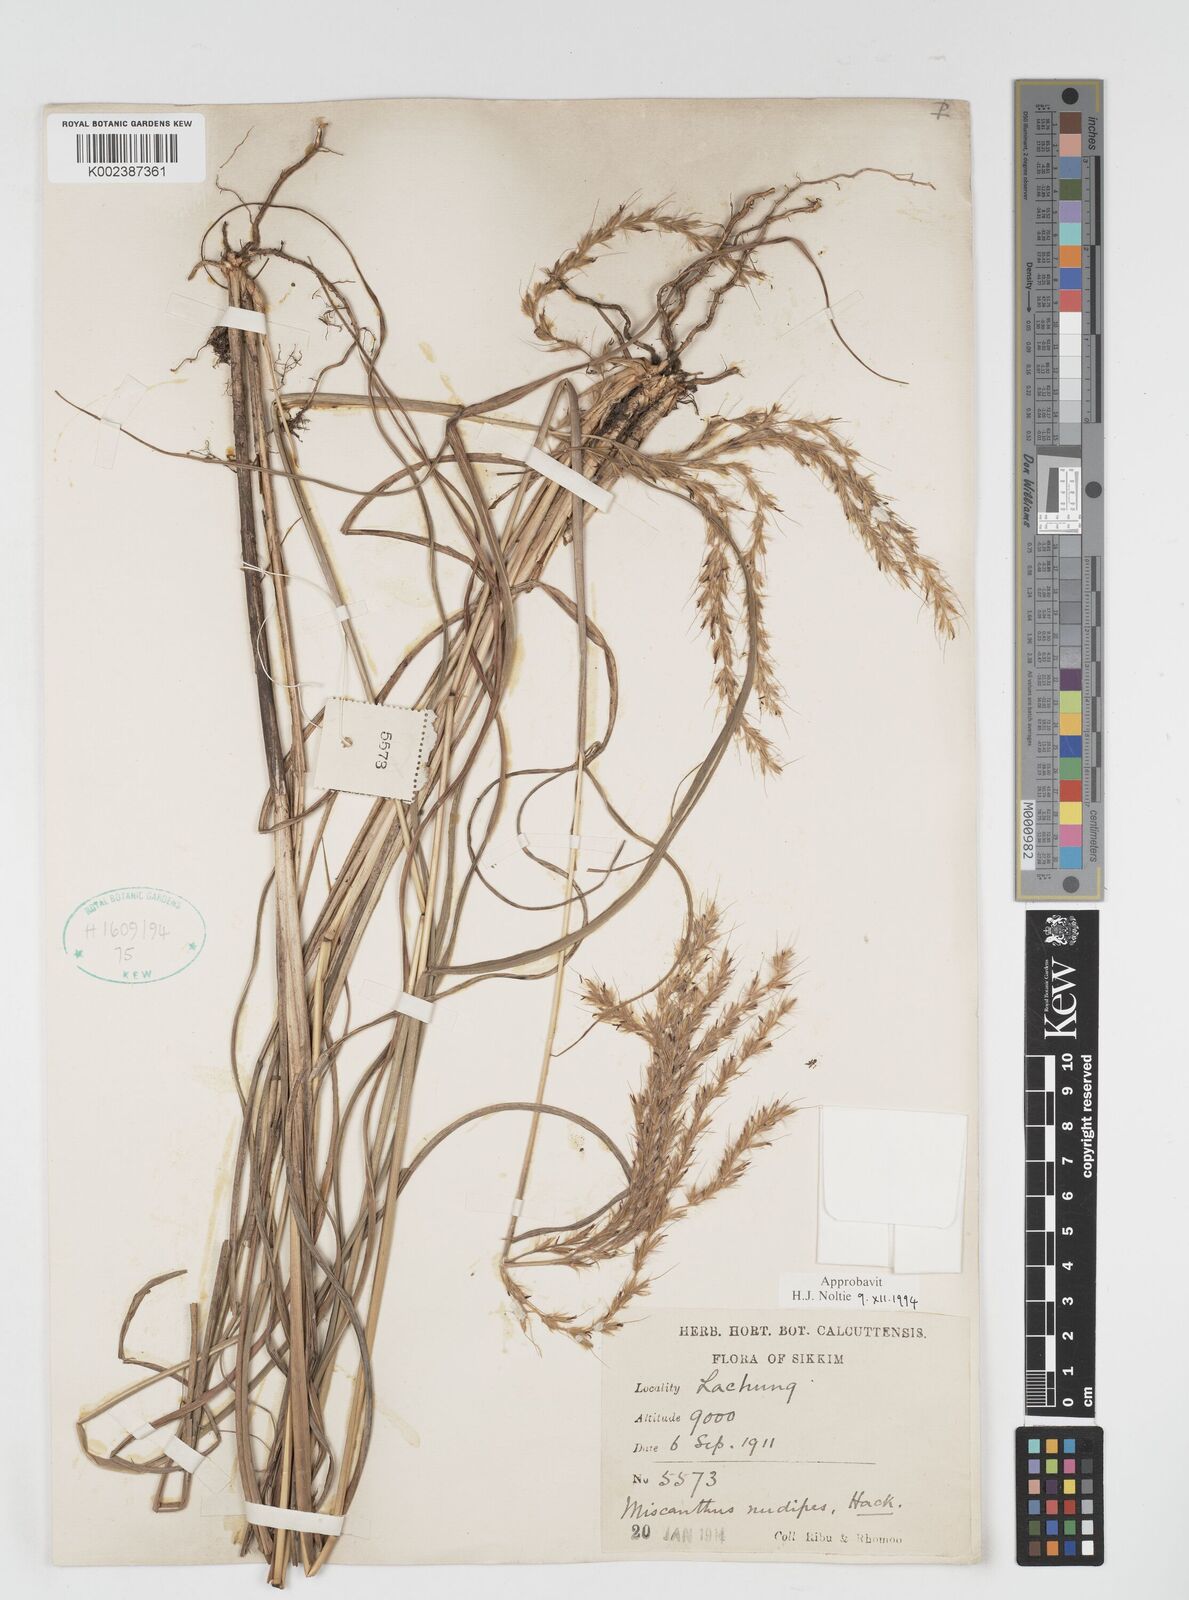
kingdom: Plantae
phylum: Tracheophyta
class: Liliopsida
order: Poales
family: Poaceae
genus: Miscanthus
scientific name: Miscanthus nudipes
